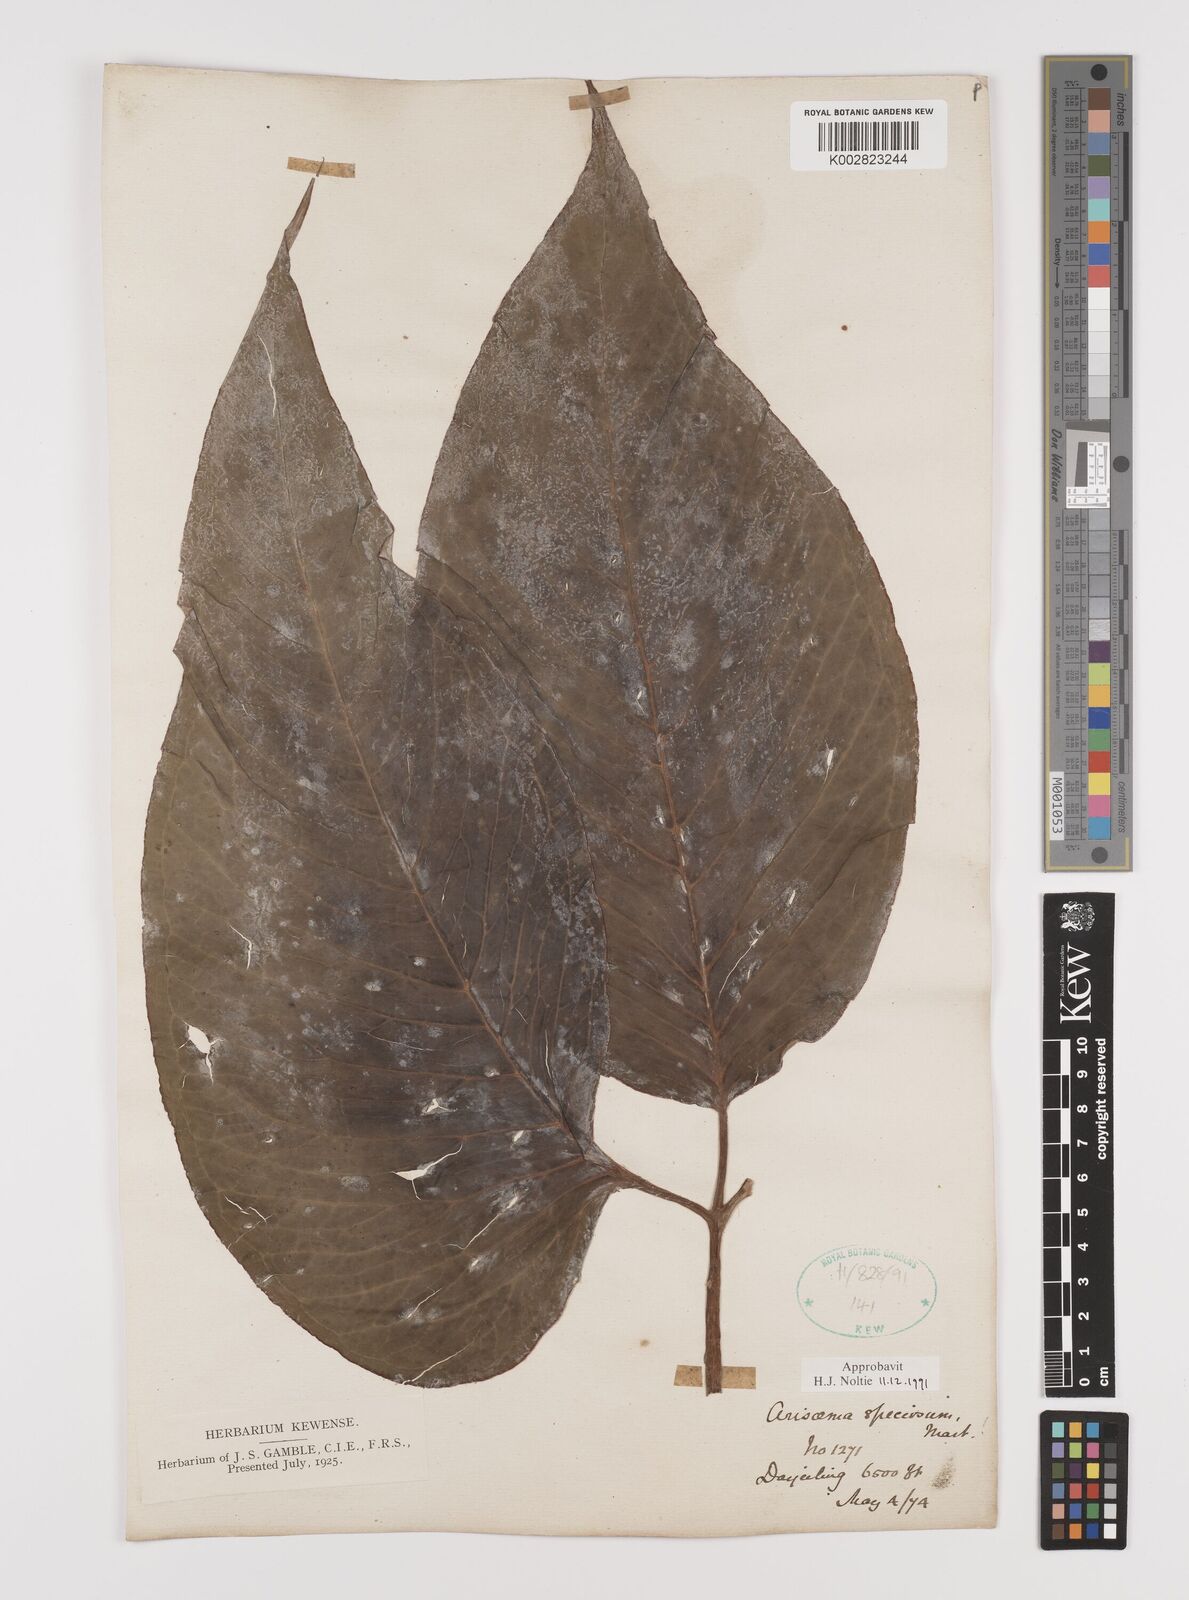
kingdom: Plantae
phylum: Tracheophyta
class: Liliopsida
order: Alismatales
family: Araceae
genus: Arisaema
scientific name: Arisaema speciosum
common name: Showy cobra-lily
